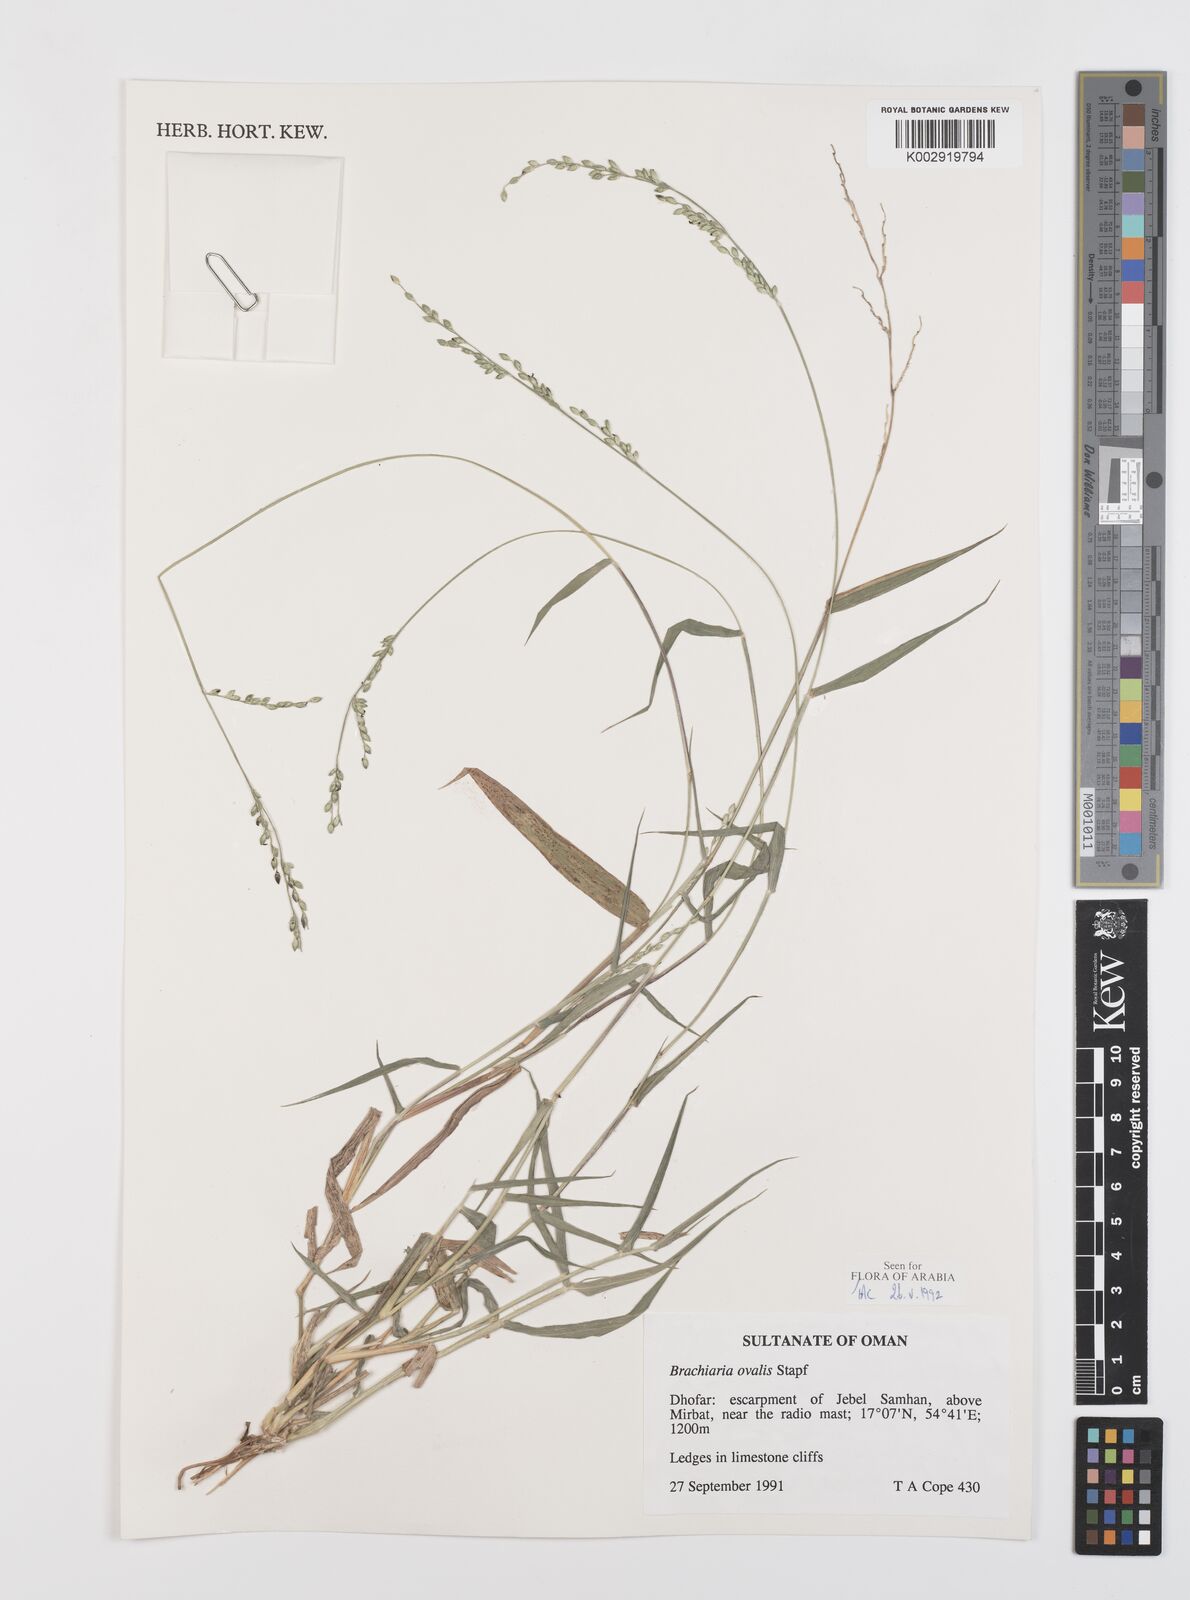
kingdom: Plantae
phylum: Tracheophyta
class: Liliopsida
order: Poales
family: Poaceae
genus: Urochloa
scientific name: Urochloa ovalis
